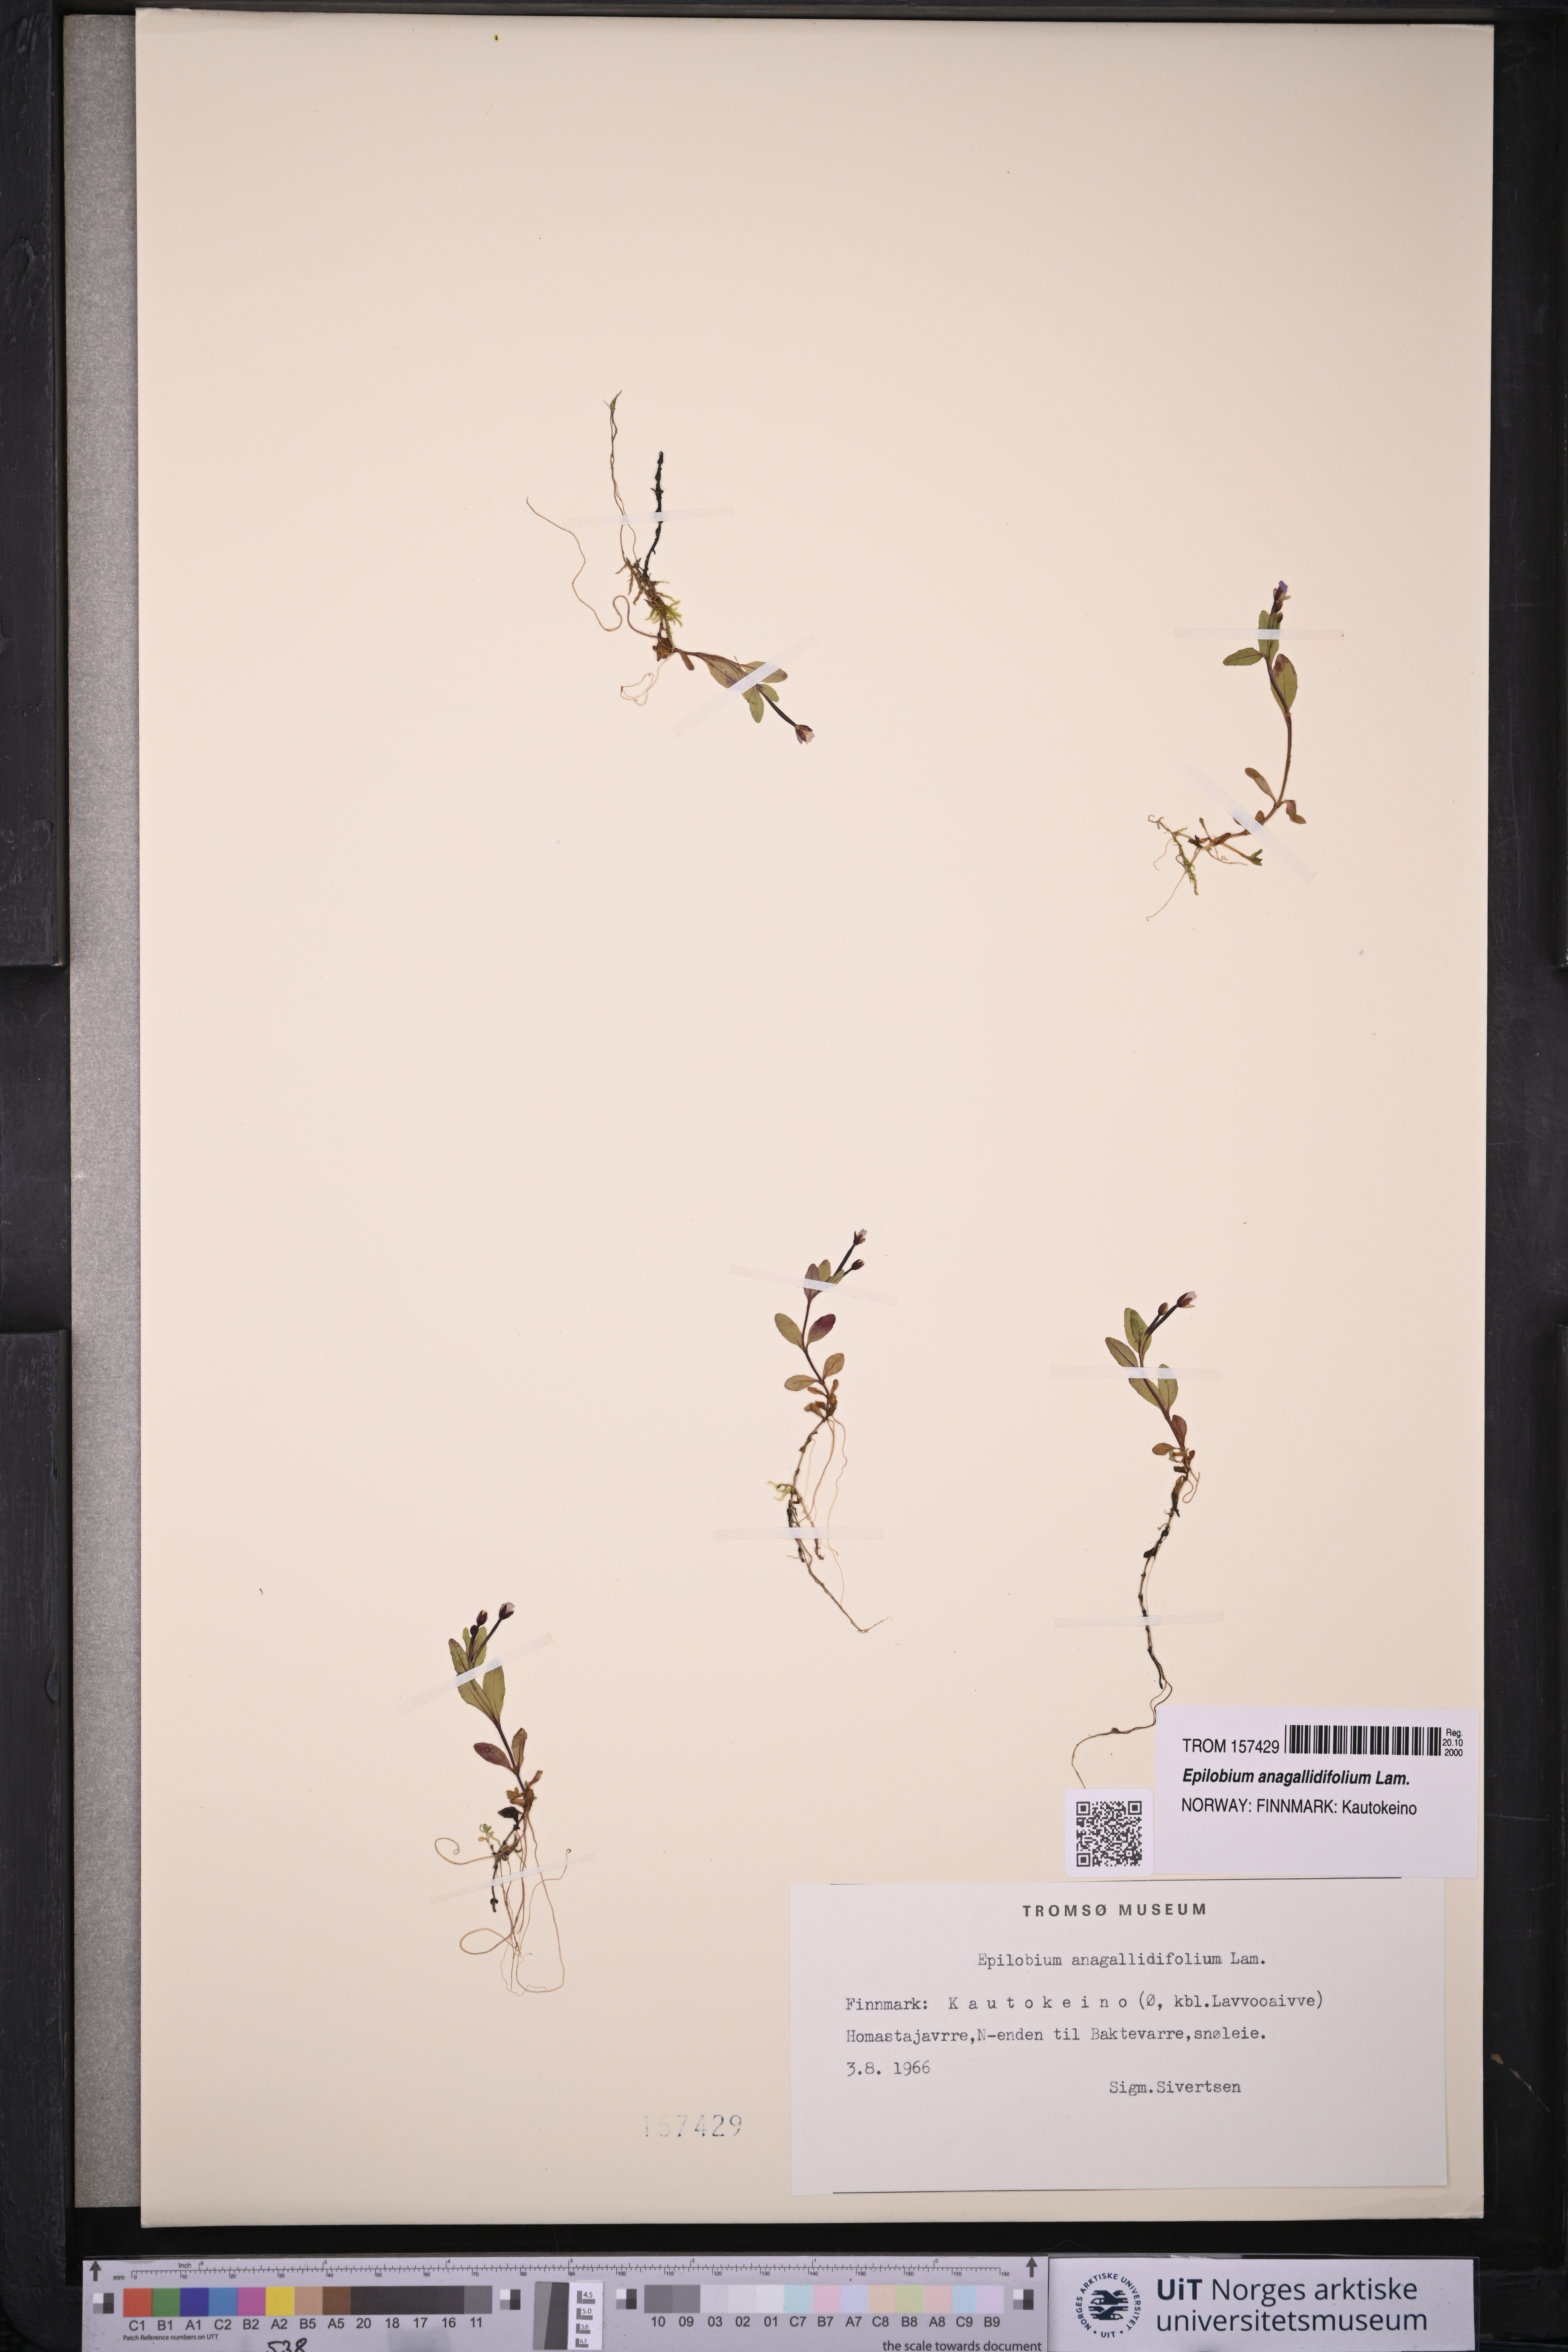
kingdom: Plantae
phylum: Tracheophyta
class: Magnoliopsida
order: Myrtales
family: Onagraceae
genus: Epilobium
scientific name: Epilobium anagallidifolium
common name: Alpine willowherb
